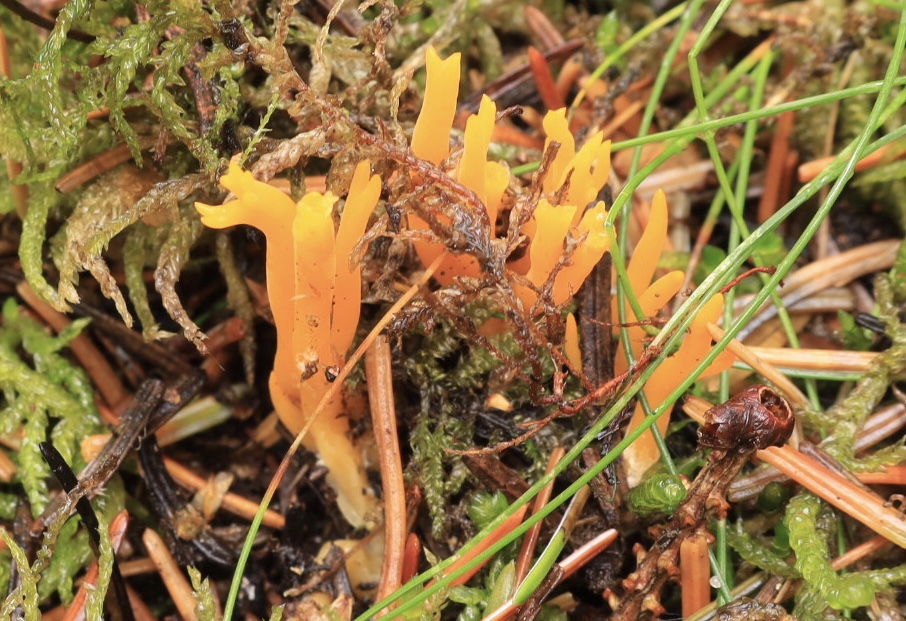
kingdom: Fungi
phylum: Basidiomycota
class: Dacrymycetes
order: Dacrymycetales
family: Dacrymycetaceae
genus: Calocera
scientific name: Calocera viscosa
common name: almindelig guldgaffel
